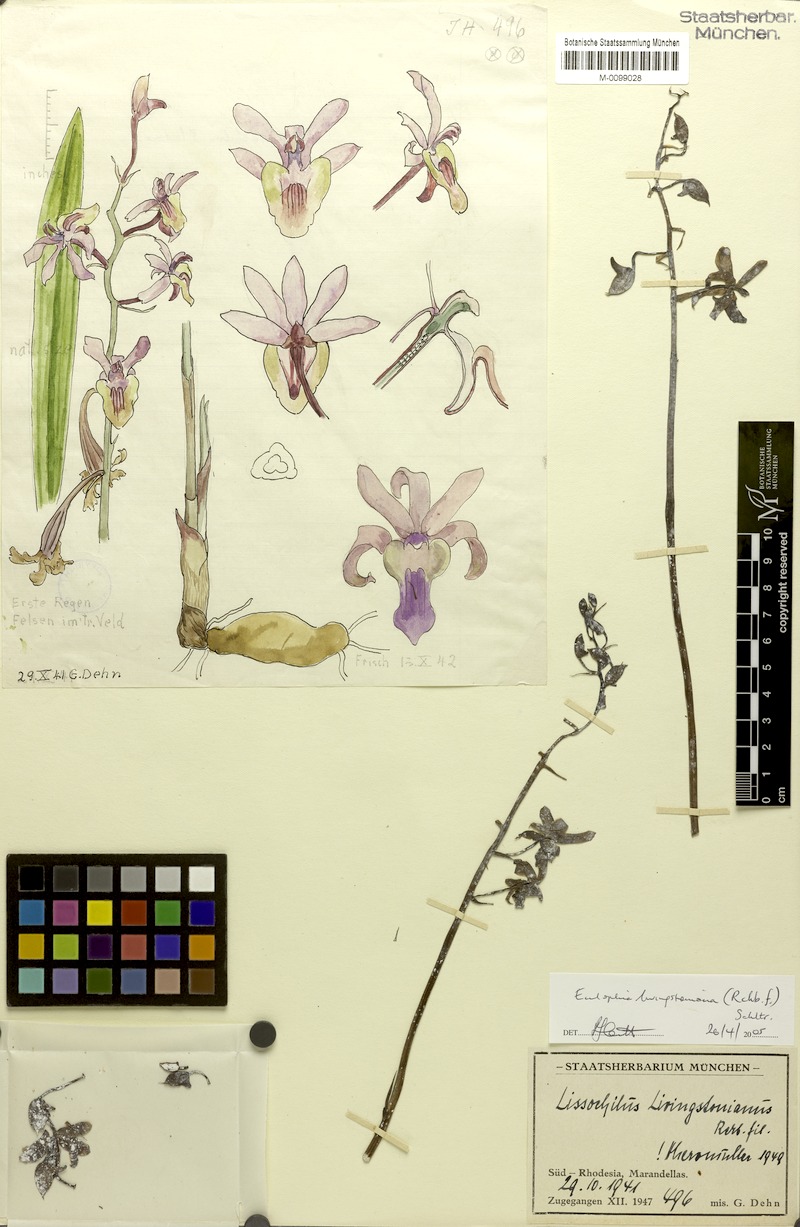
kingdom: Plantae
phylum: Tracheophyta
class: Liliopsida
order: Asparagales
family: Orchidaceae
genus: Eulophia
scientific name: Eulophia livingstoneana
